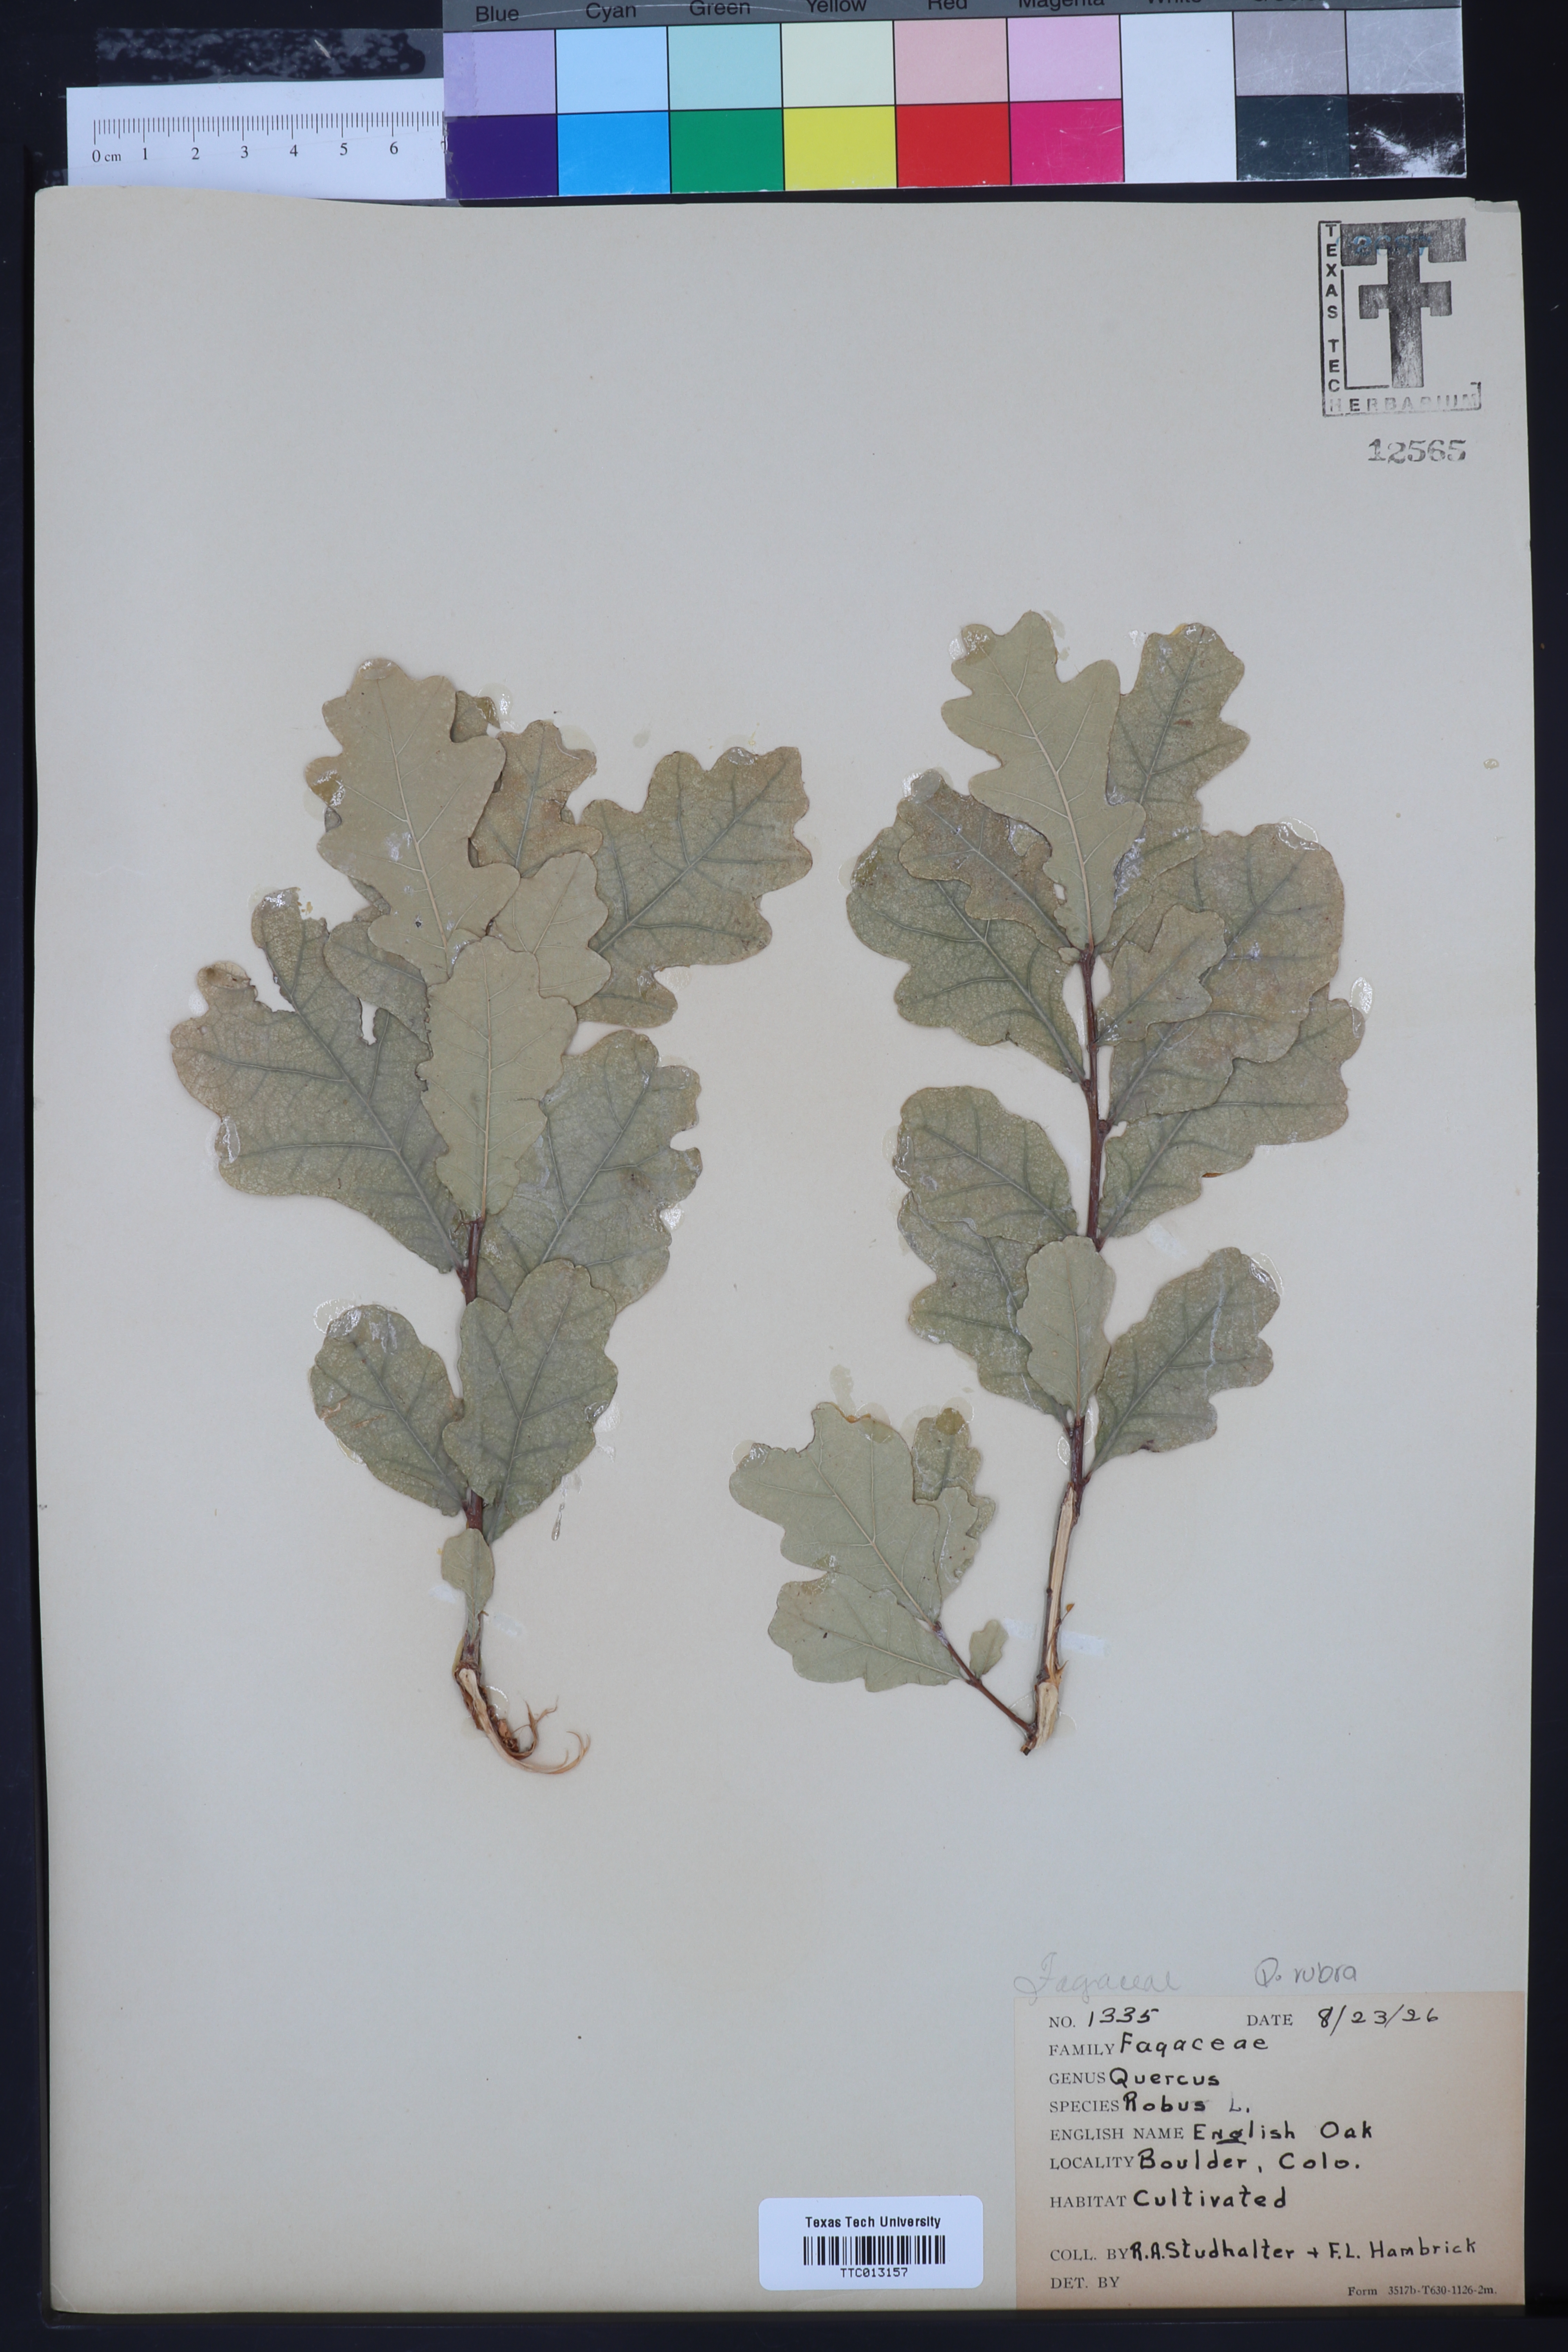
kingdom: Plantae
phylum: Tracheophyta
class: Magnoliopsida
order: Fagales
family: Fagaceae
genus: Quercus
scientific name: Quercus robur
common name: Pedunculate oak
